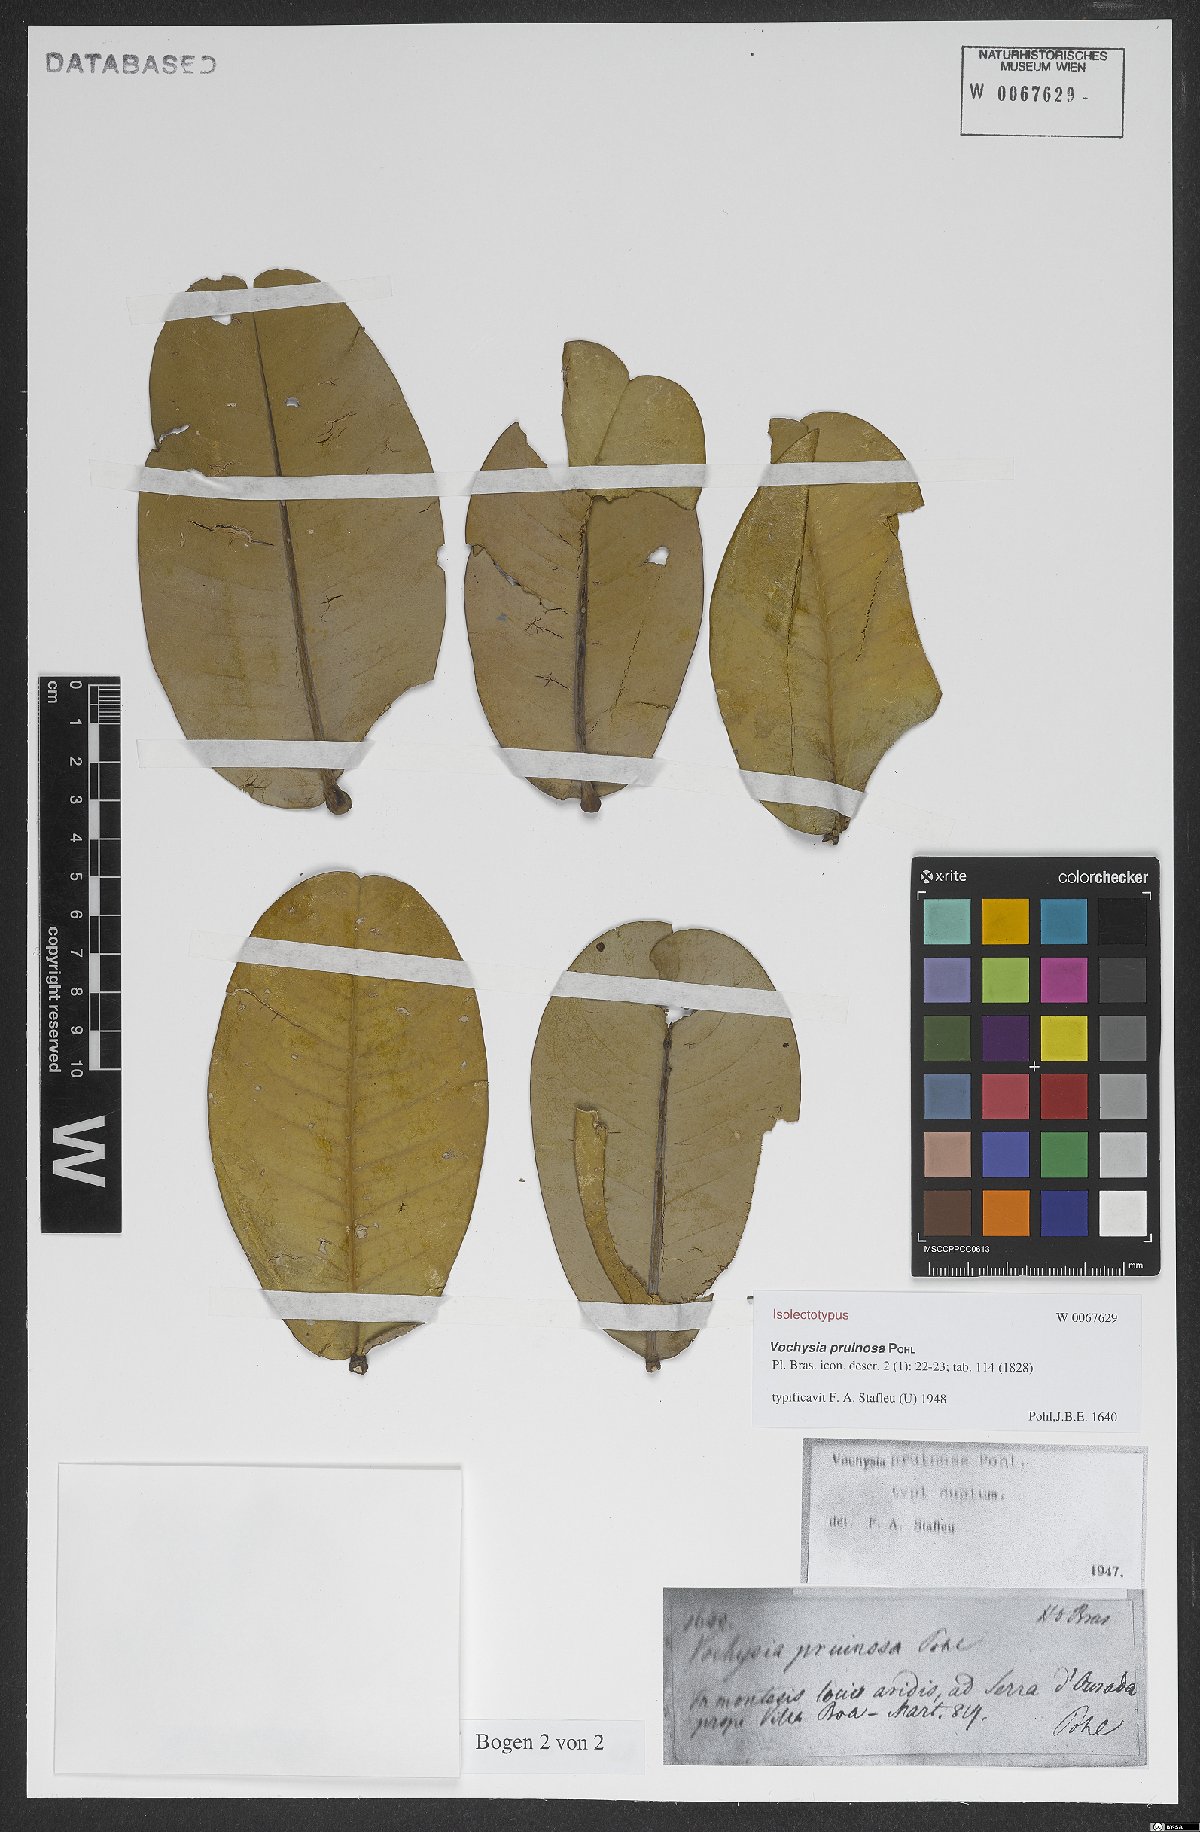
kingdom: Plantae
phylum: Tracheophyta
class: Magnoliopsida
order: Myrtales
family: Vochysiaceae
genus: Vochysia
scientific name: Vochysia pruinosa
